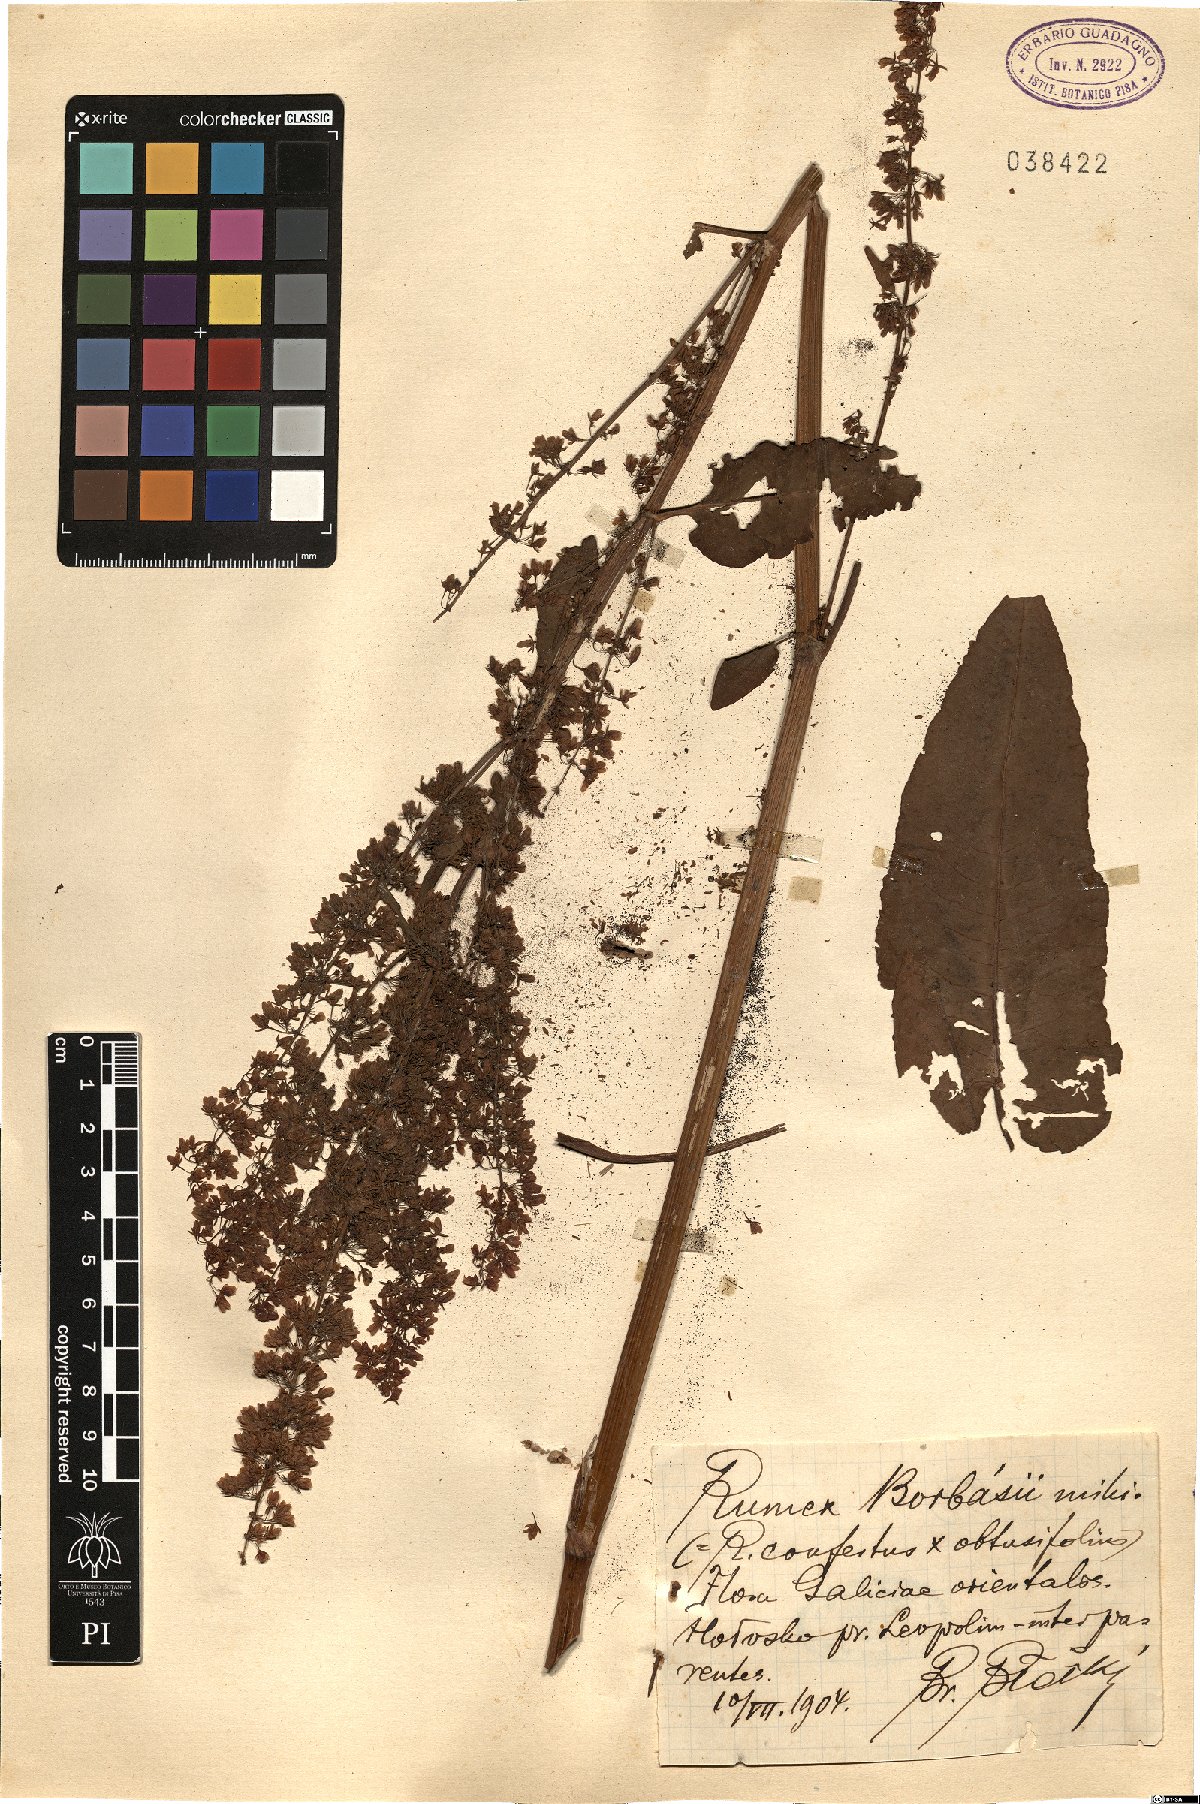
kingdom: Plantae
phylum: Tracheophyta
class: Magnoliopsida
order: Caryophyllales
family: Polygonaceae
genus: Rumex
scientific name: Rumex borbasii
